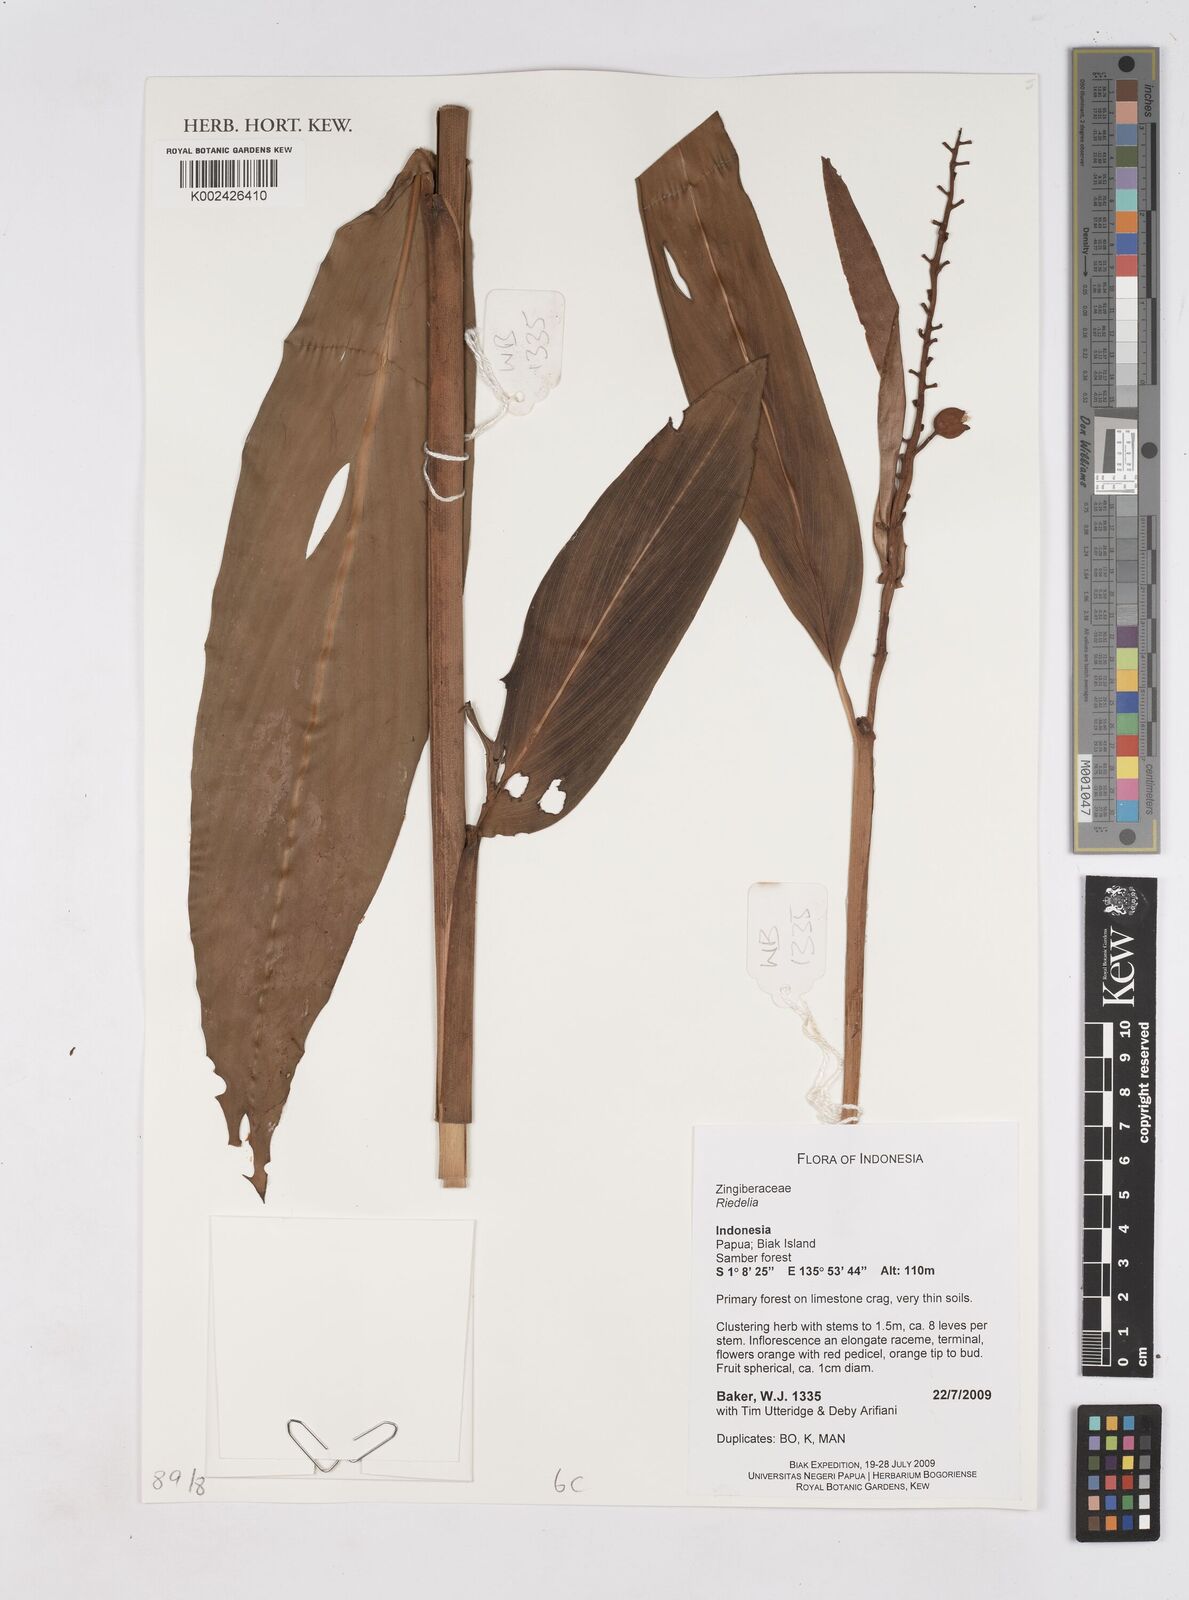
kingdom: Plantae
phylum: Tracheophyta
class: Liliopsida
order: Zingiberales
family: Zingiberaceae
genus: Riedelia
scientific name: Riedelia
